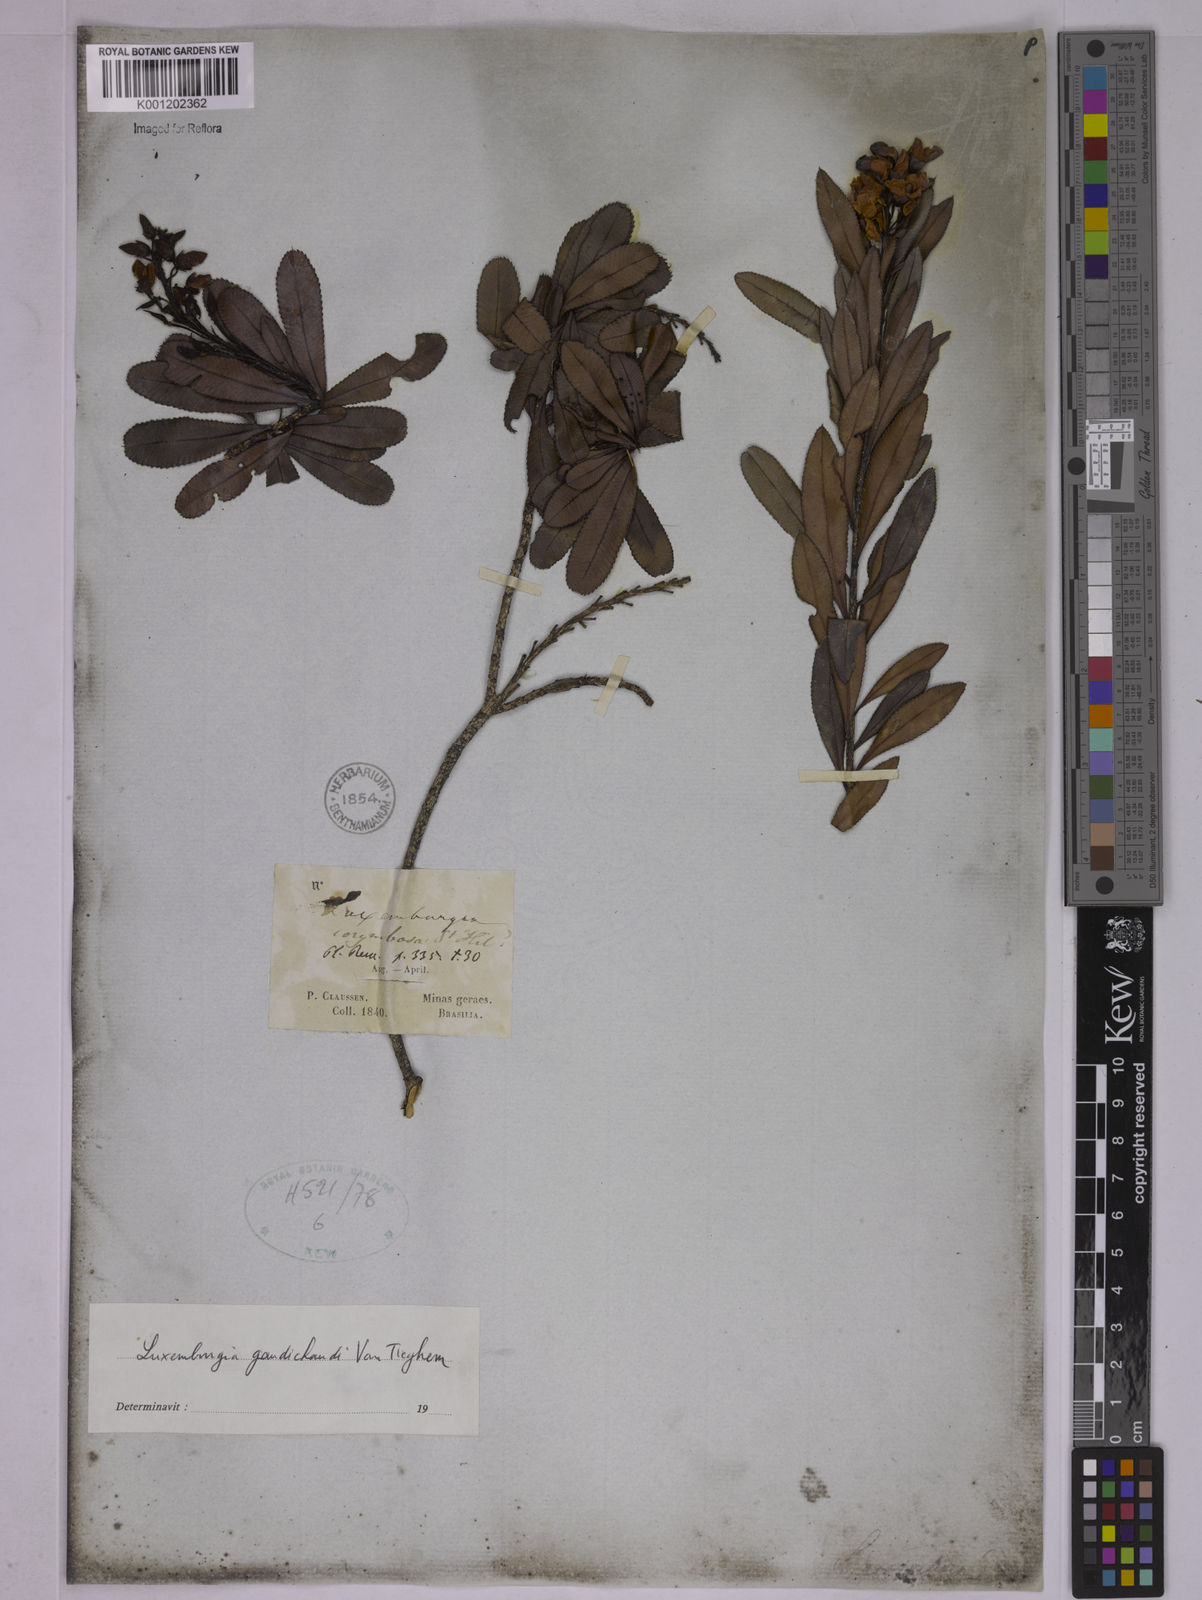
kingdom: Plantae
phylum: Tracheophyta
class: Magnoliopsida
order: Malpighiales
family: Ochnaceae
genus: Luxemburgia
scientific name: Luxemburgia gaudichaudii
